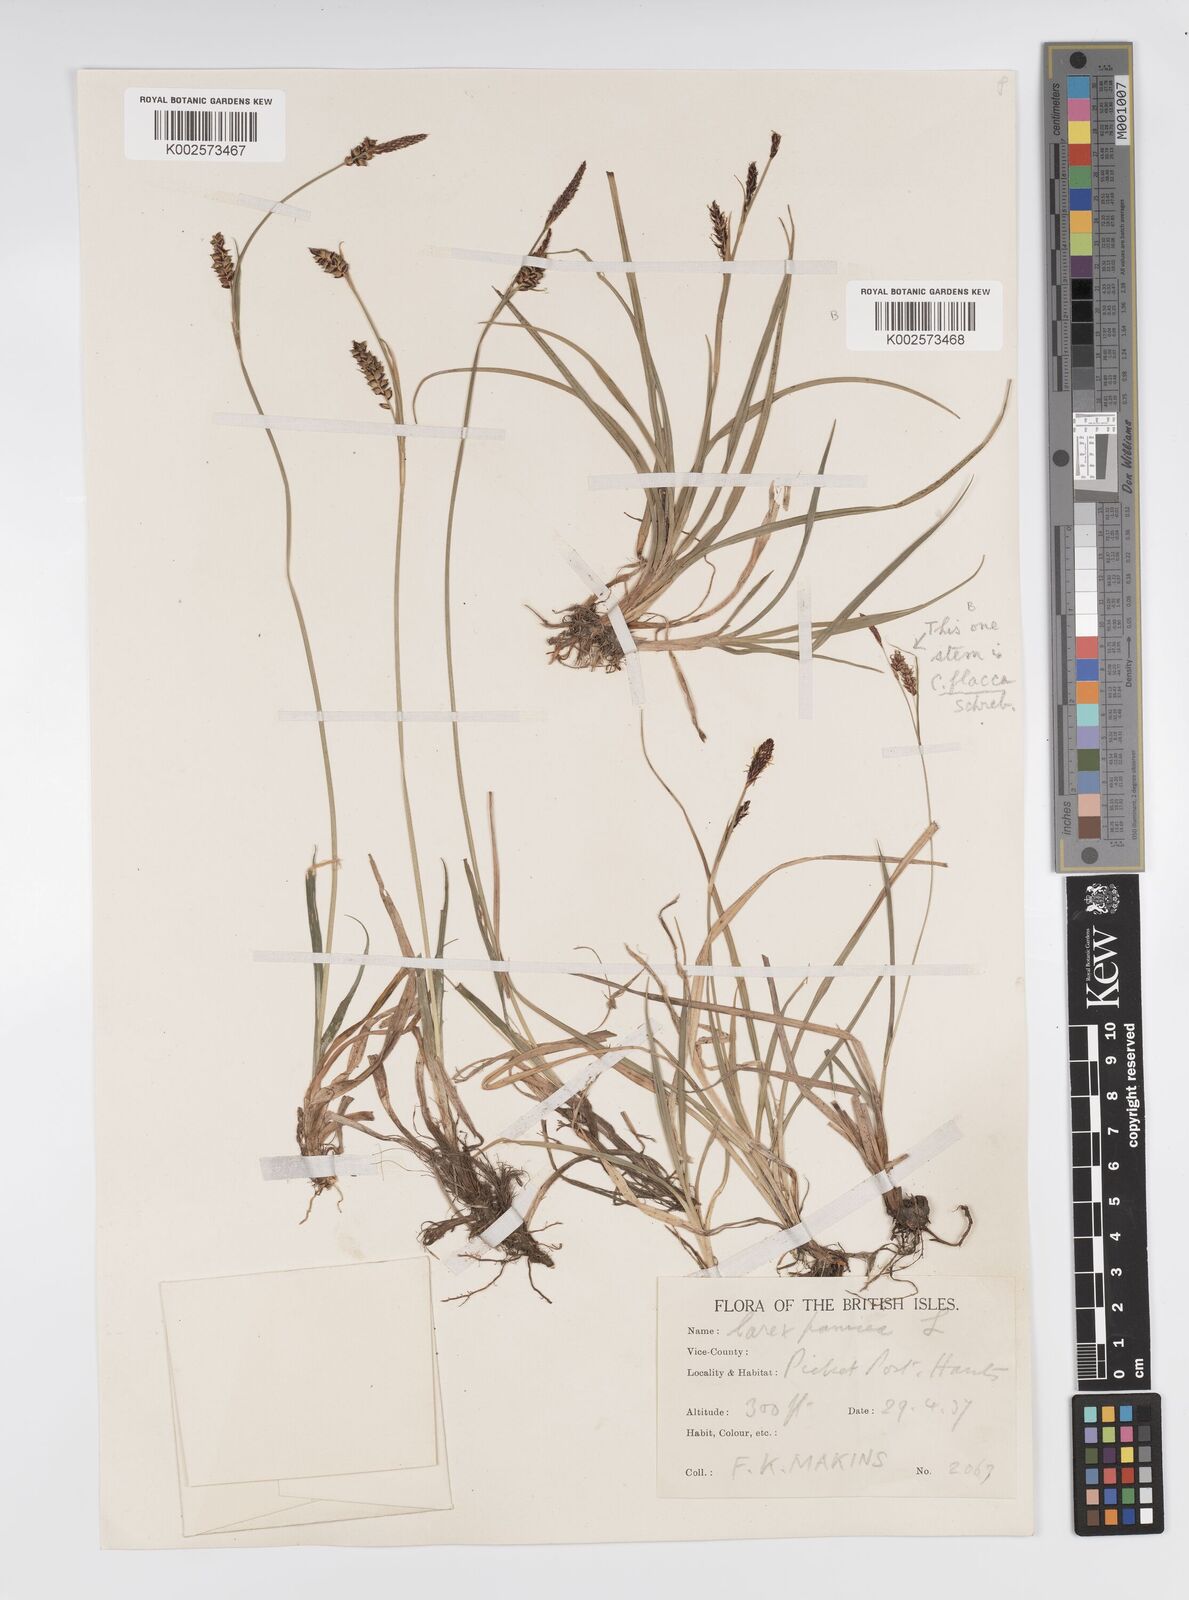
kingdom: Plantae
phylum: Tracheophyta
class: Liliopsida
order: Poales
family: Cyperaceae
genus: Carex
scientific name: Carex panicea
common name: Carnation sedge
